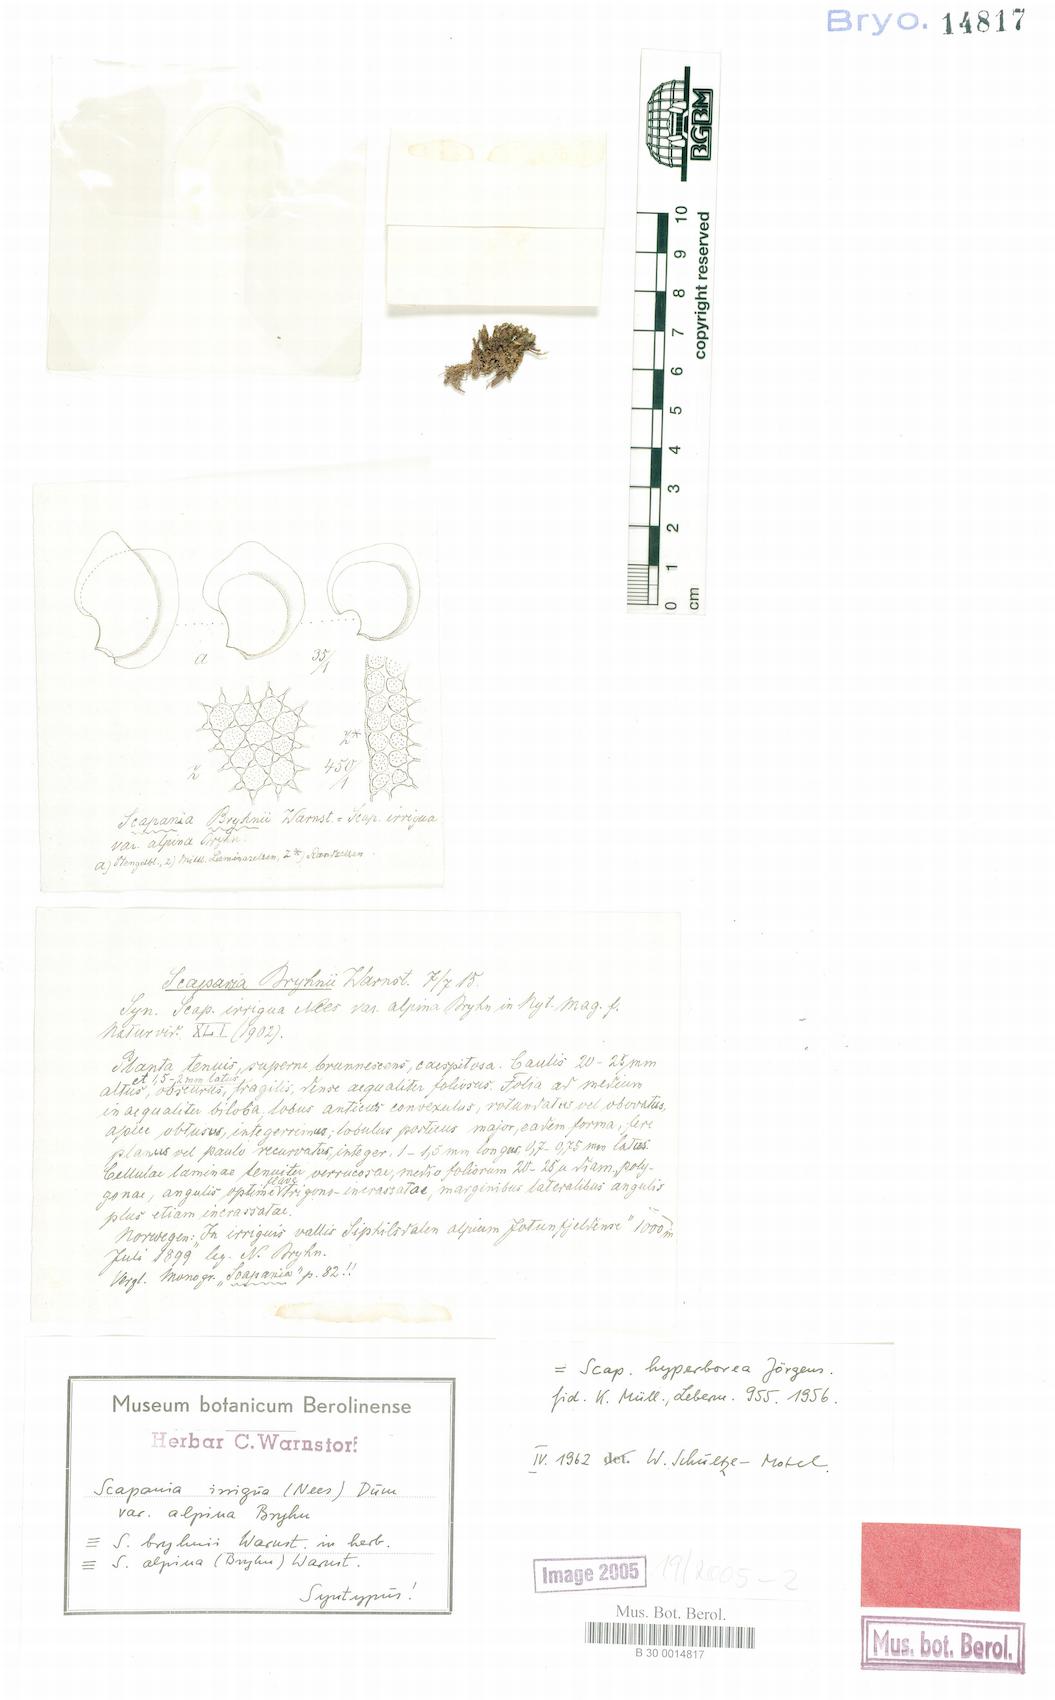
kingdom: Plantae
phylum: Marchantiophyta
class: Jungermanniopsida
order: Jungermanniales
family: Scapaniaceae
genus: Scapania
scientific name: Scapania hyperborea
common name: Northern earwort
